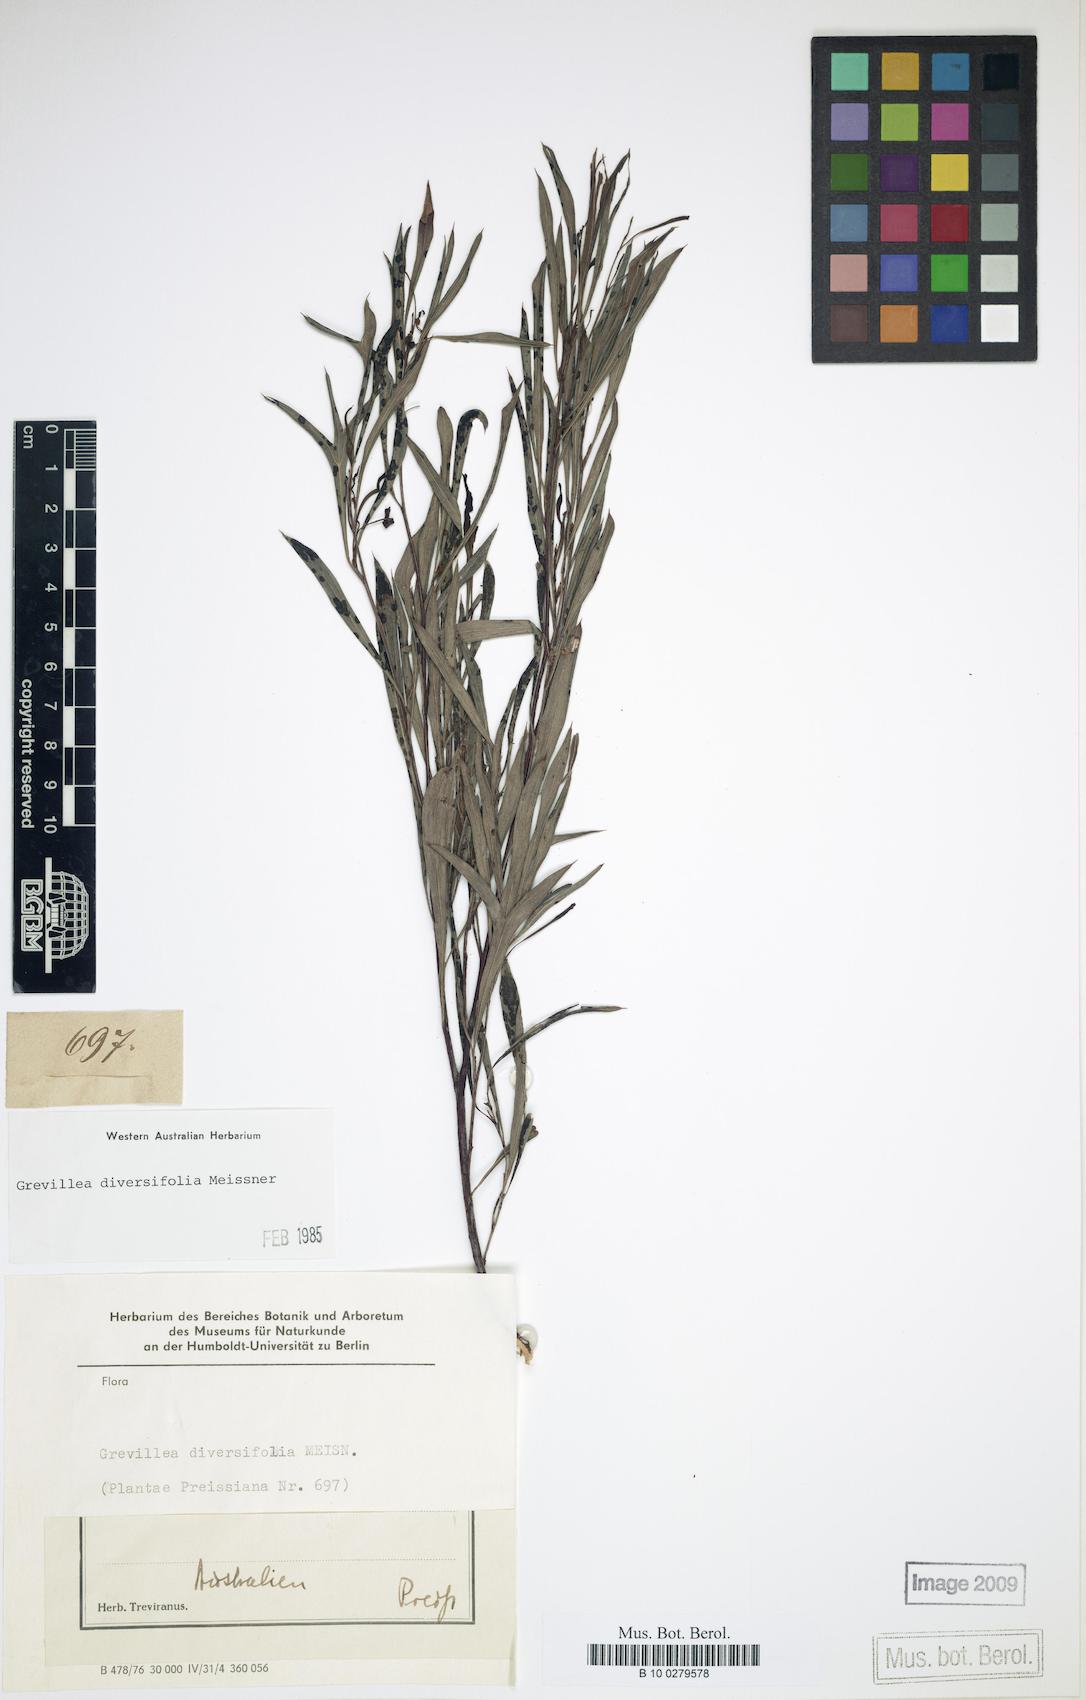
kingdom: Plantae
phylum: Tracheophyta
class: Magnoliopsida
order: Proteales
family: Proteaceae
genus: Grevillea
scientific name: Grevillea diversifolia
